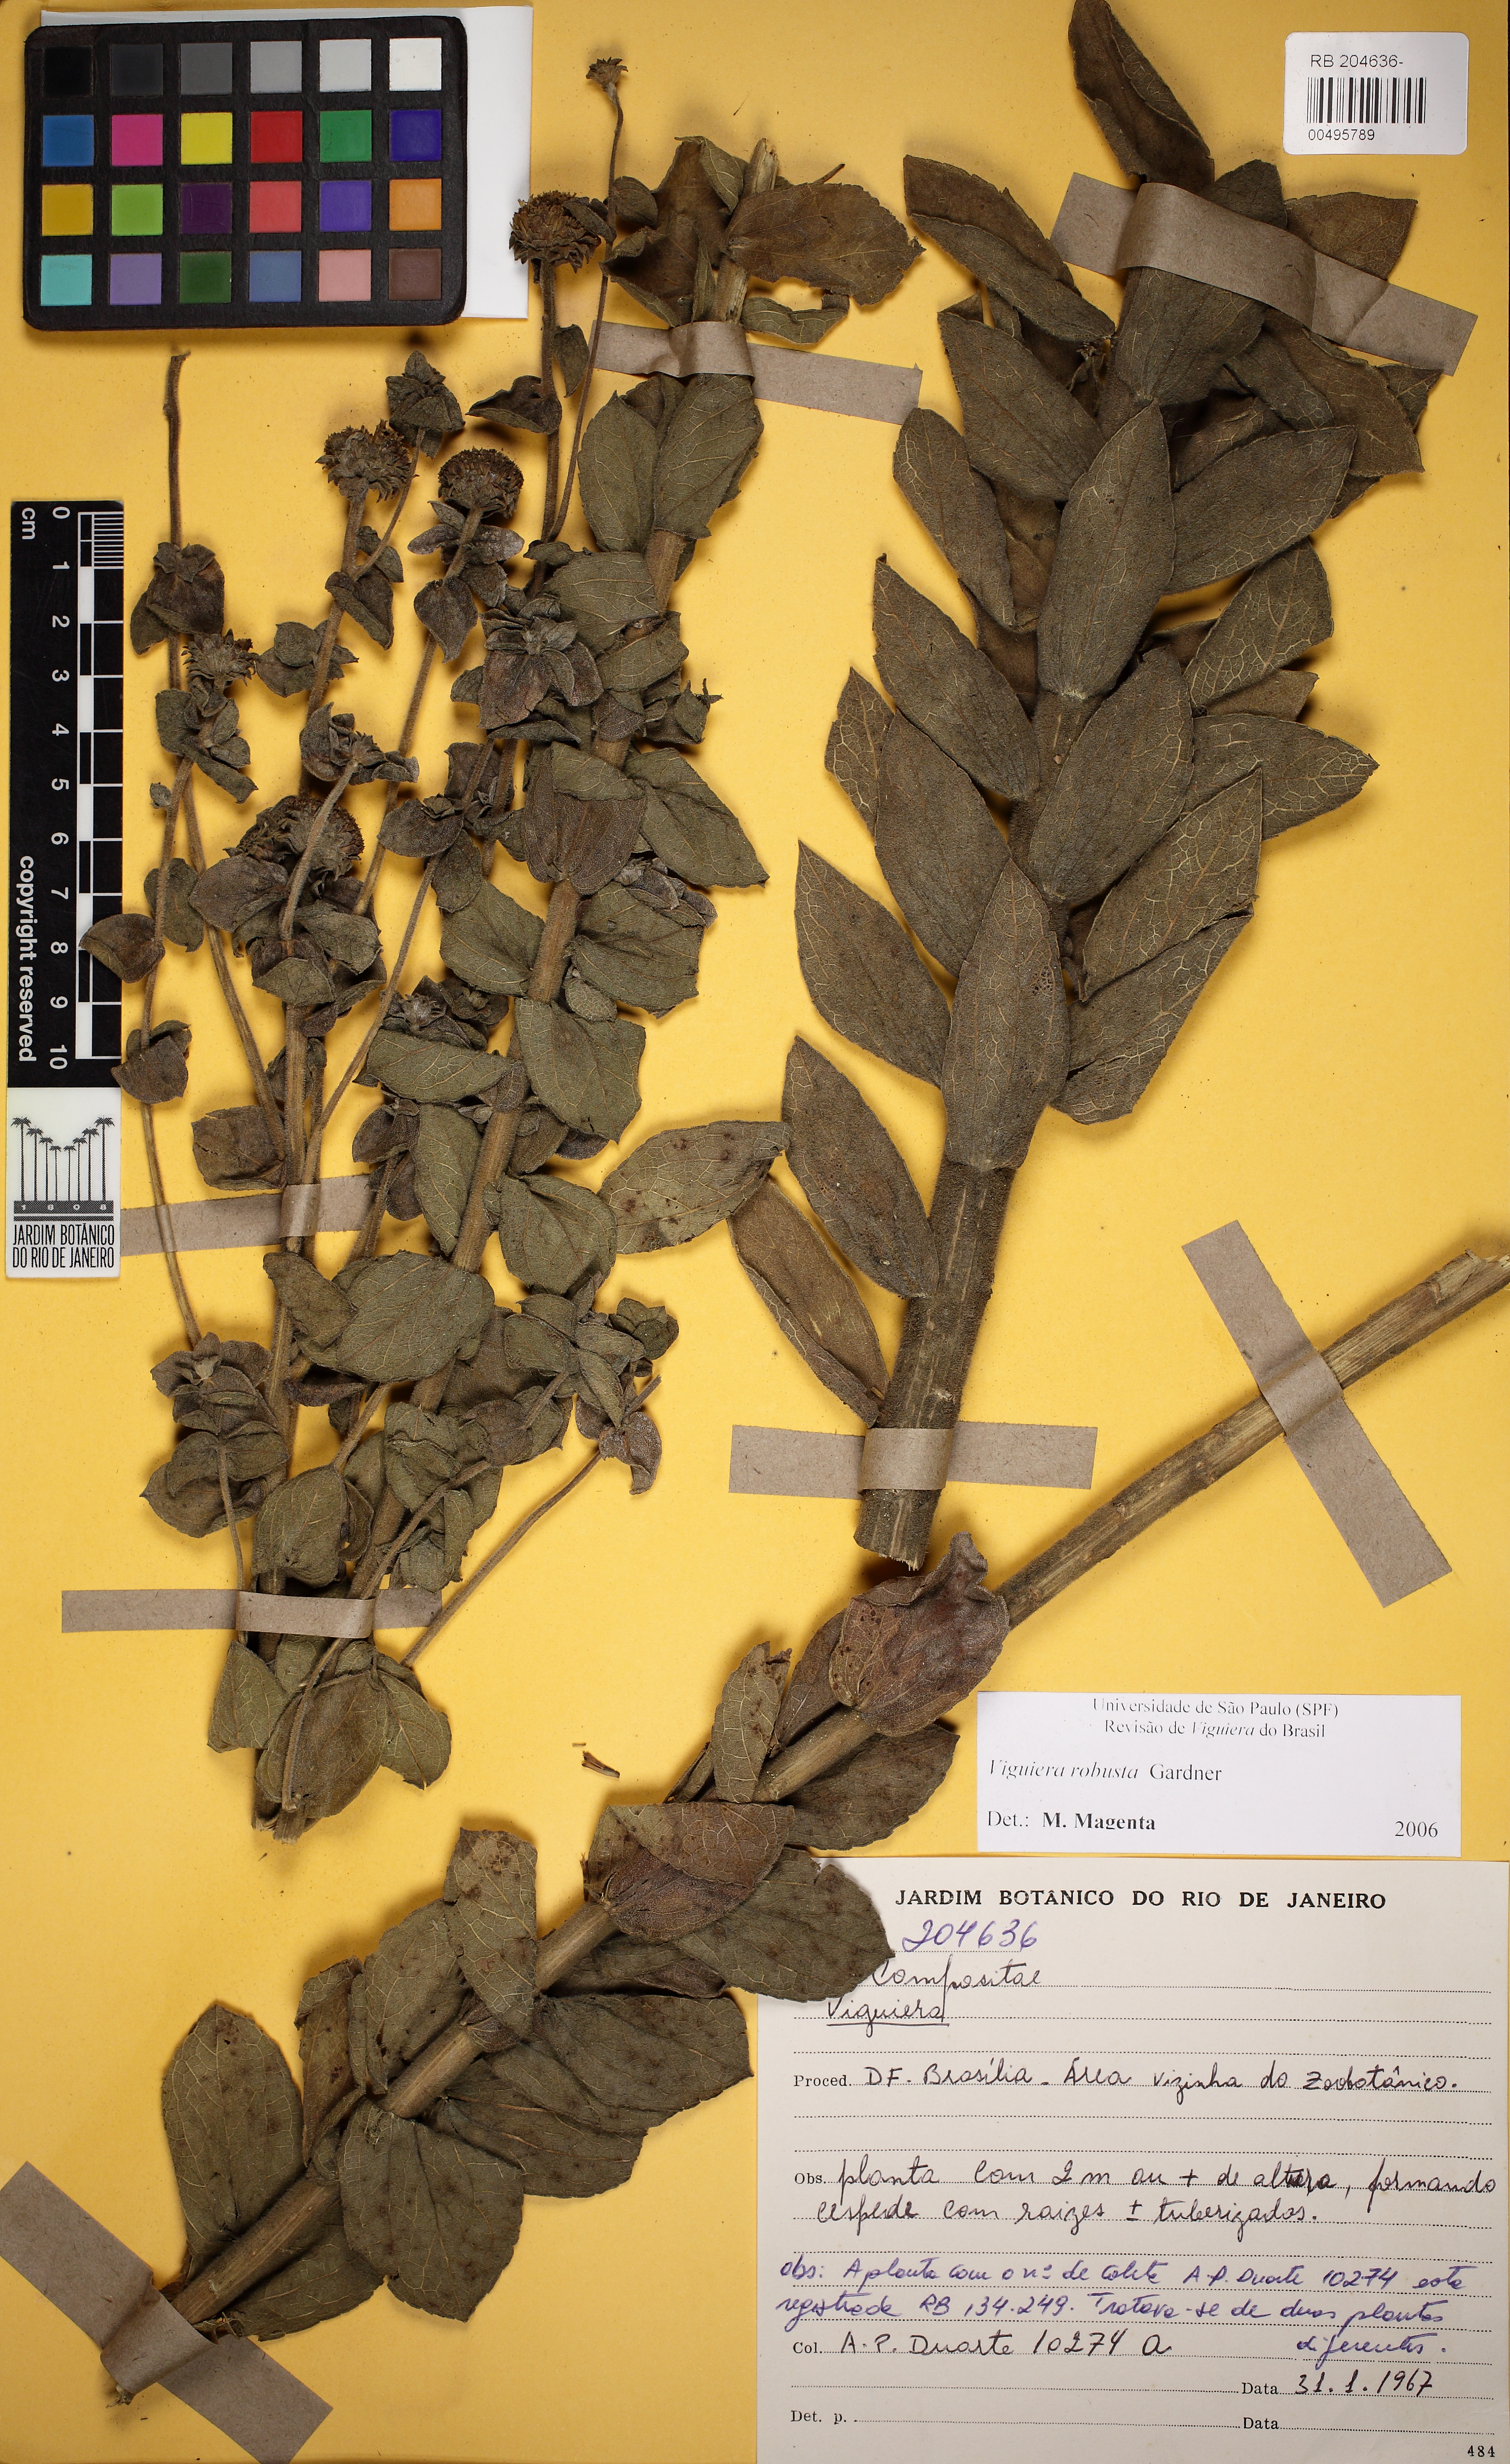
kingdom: Plantae
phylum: Tracheophyta
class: Magnoliopsida
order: Asterales
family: Asteraceae
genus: Aldama
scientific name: Aldama robusta
